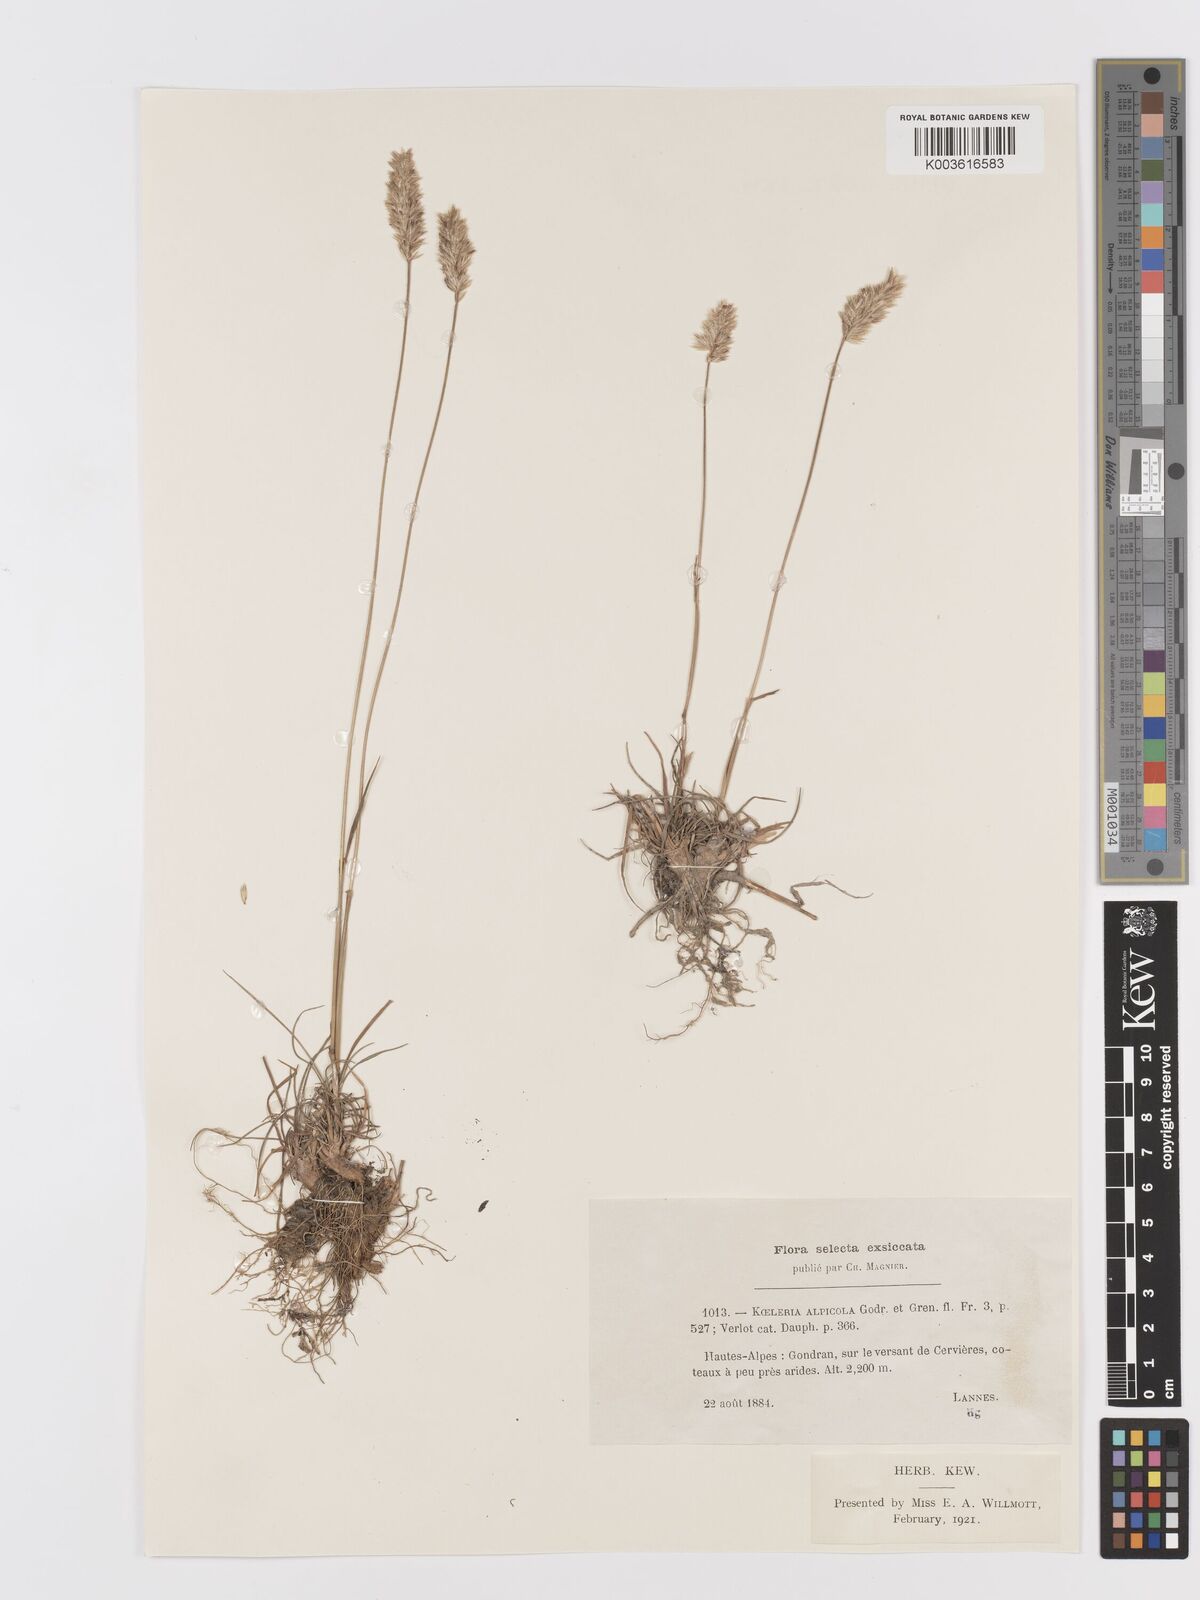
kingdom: Plantae
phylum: Tracheophyta
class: Liliopsida
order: Poales
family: Poaceae
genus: Koeleria
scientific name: Koeleria vallesiana
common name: Somerset hair-grass
